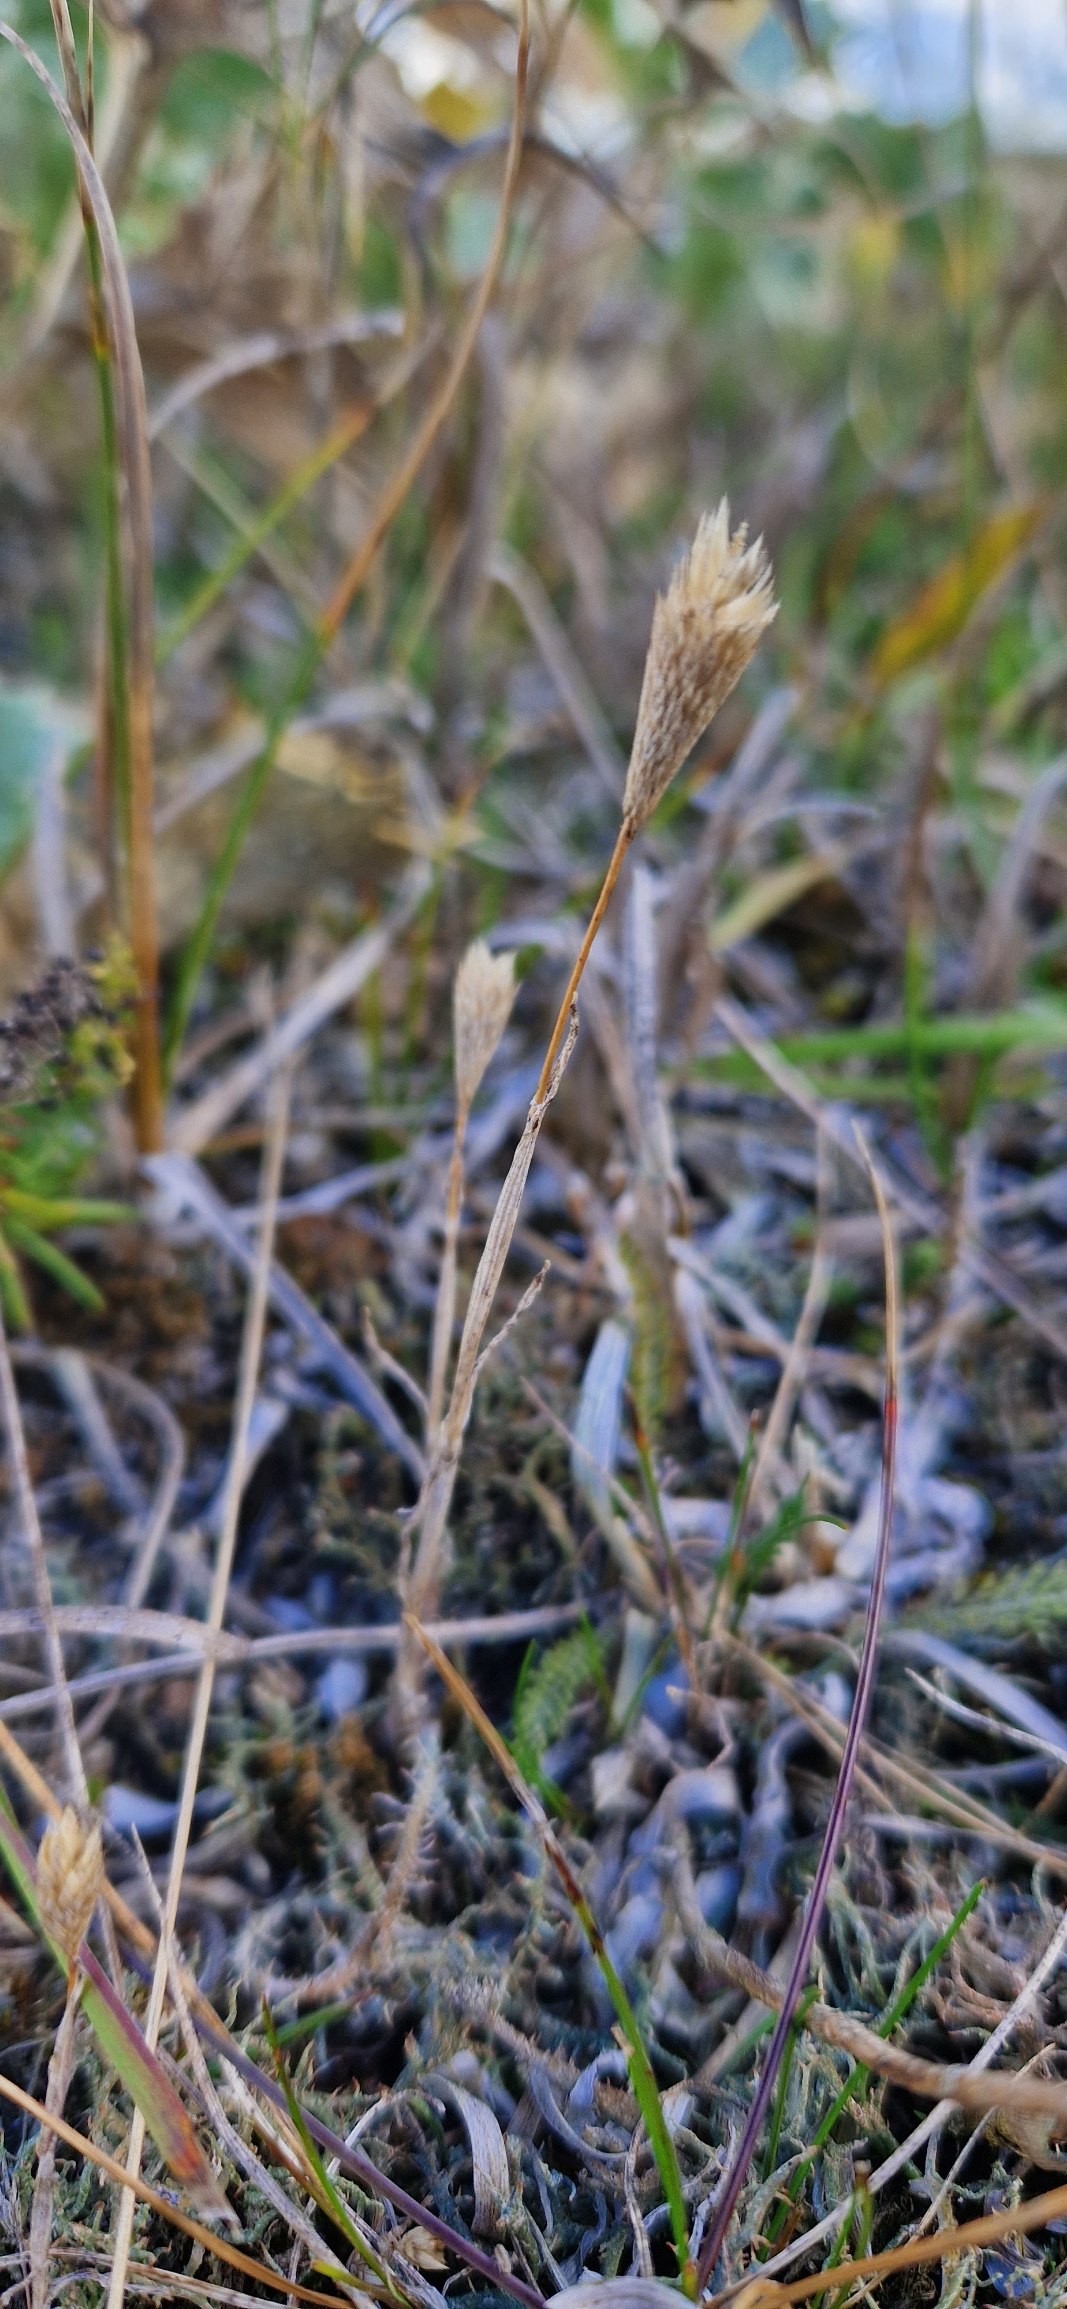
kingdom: Plantae
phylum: Tracheophyta
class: Liliopsida
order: Poales
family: Poaceae
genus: Phleum
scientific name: Phleum arenarium
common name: Sand-rottehale
